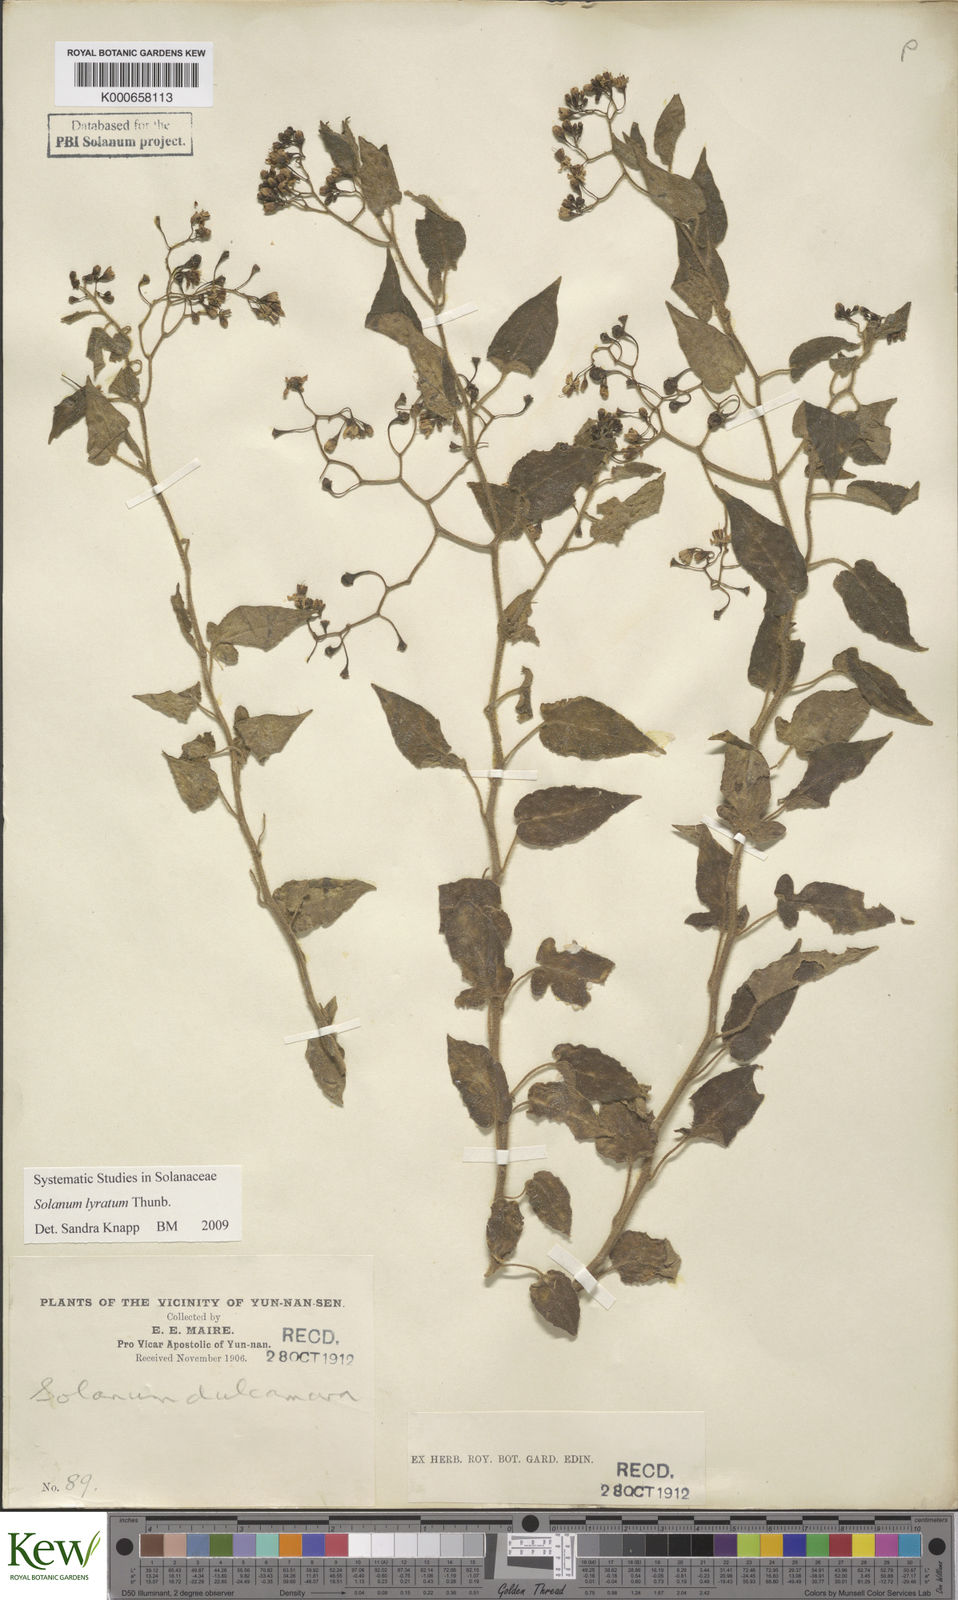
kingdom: Plantae
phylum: Tracheophyta
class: Magnoliopsida
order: Solanales
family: Solanaceae
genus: Solanum
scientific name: Solanum lyratum
